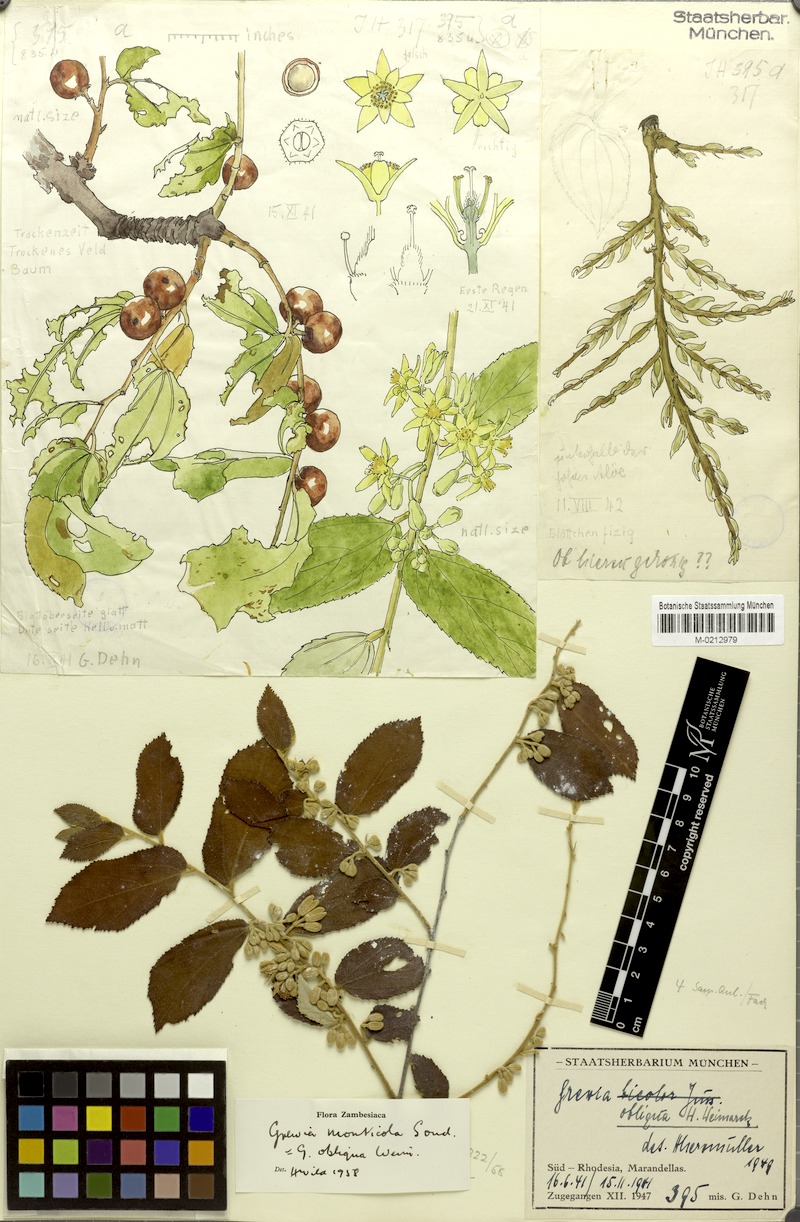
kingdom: Plantae
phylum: Tracheophyta
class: Magnoliopsida
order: Malvales
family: Malvaceae
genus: Grewia
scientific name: Grewia monticola
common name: Grey raisin
